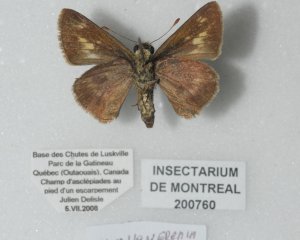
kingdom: Animalia
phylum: Arthropoda
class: Insecta
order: Lepidoptera
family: Hesperiidae
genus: Polites
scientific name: Polites egeremet
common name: Northern Broken-Dash
